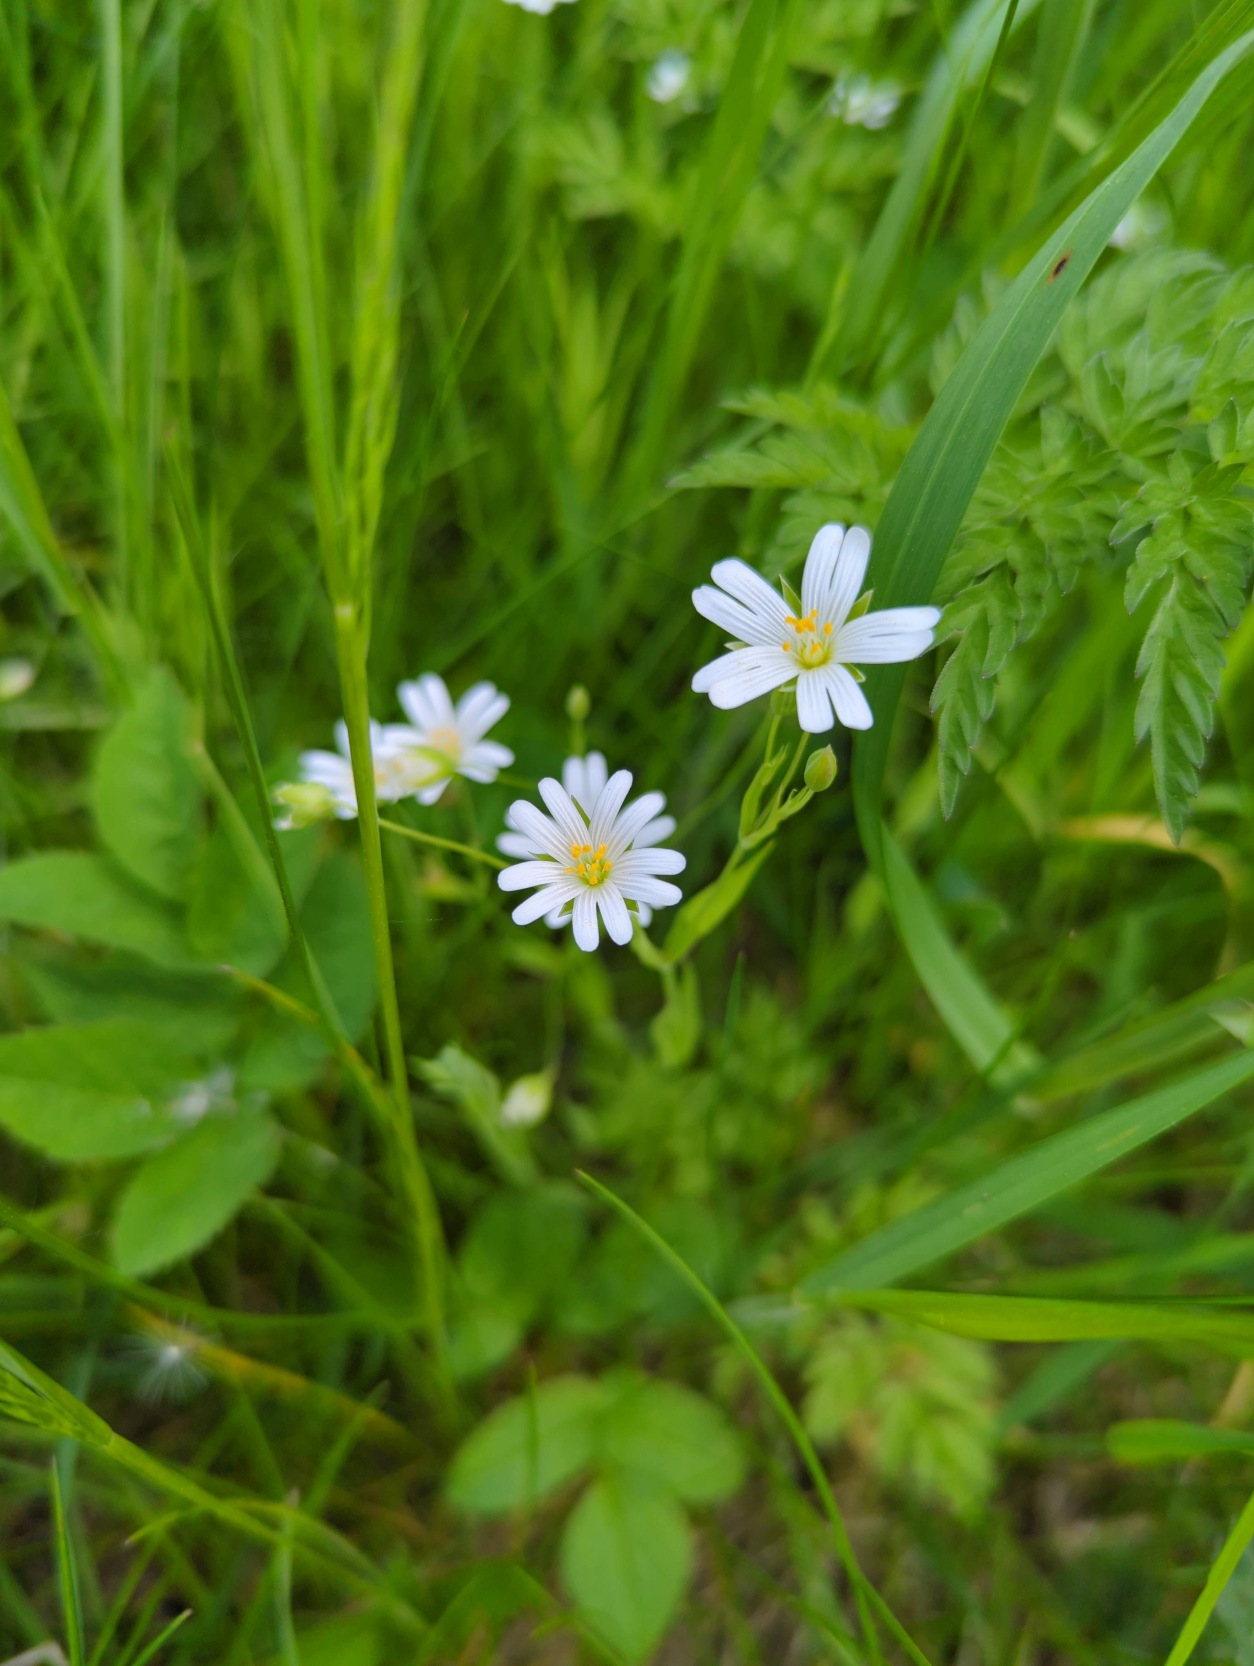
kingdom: Plantae
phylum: Tracheophyta
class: Magnoliopsida
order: Caryophyllales
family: Caryophyllaceae
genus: Rabelera
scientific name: Rabelera holostea
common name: Stor fladstjerne
